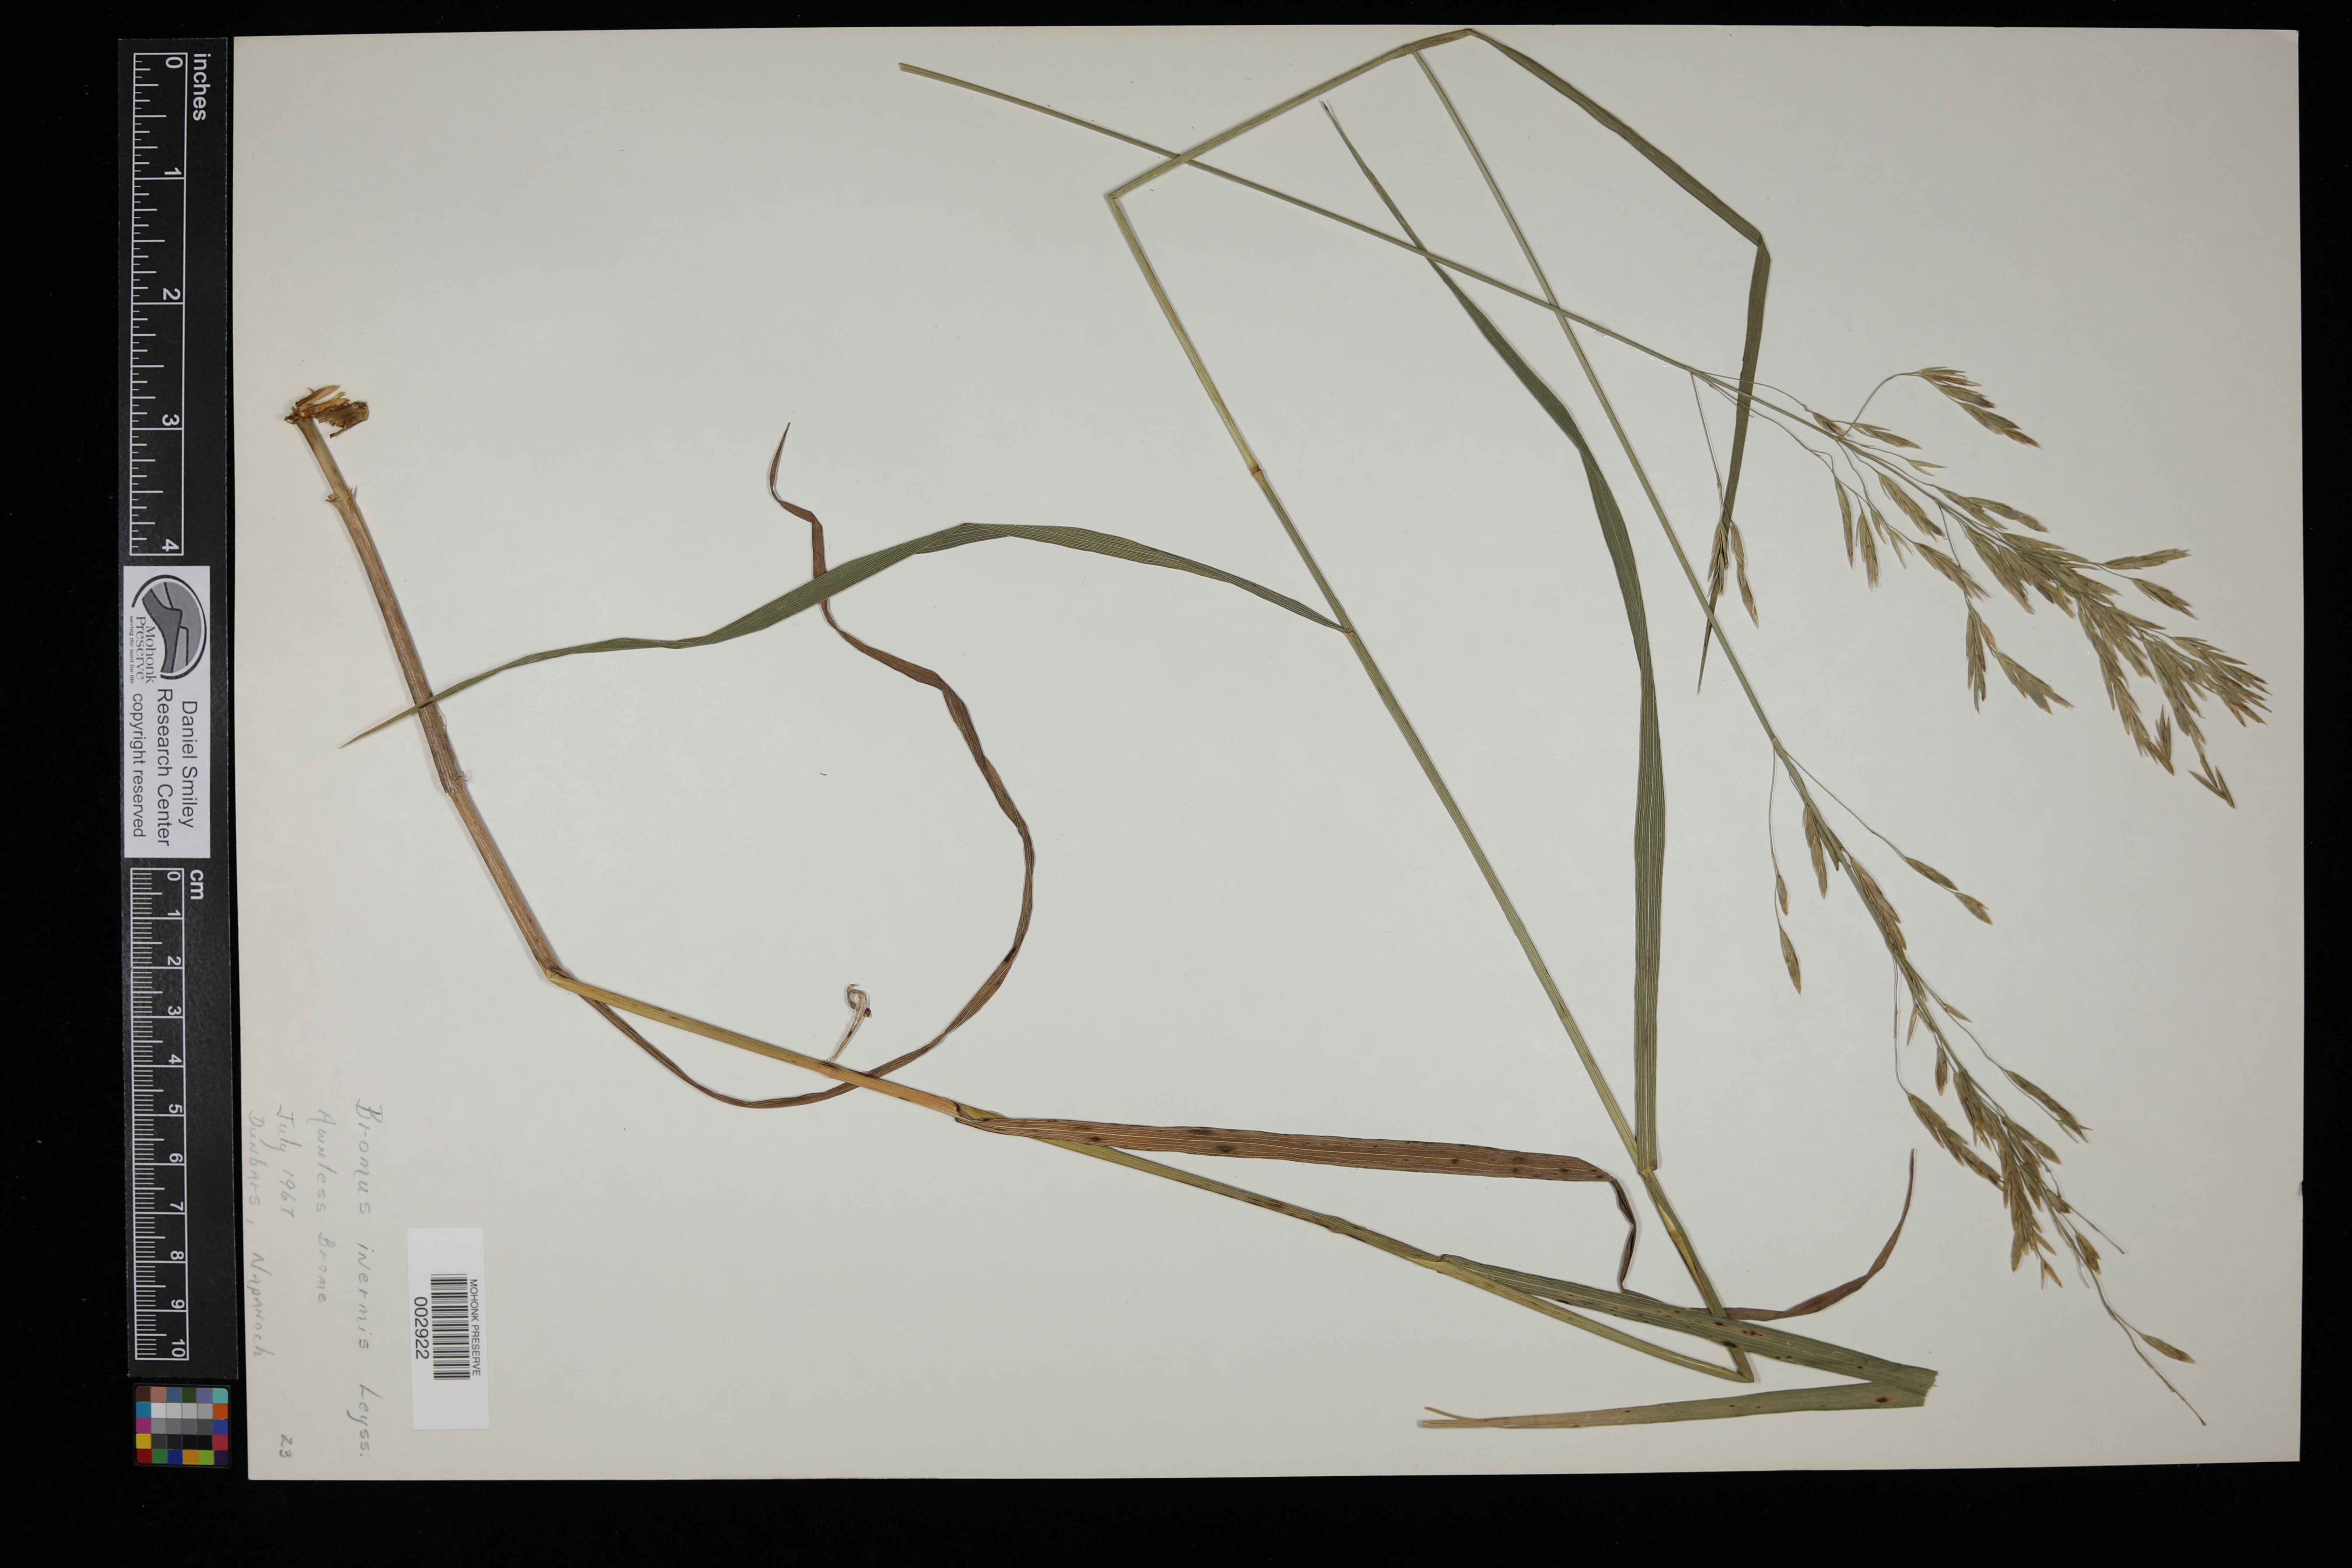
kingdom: Plantae
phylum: Tracheophyta
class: Liliopsida
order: Poales
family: Poaceae
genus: Bromus
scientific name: Bromus inermis
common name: Smooth brome
